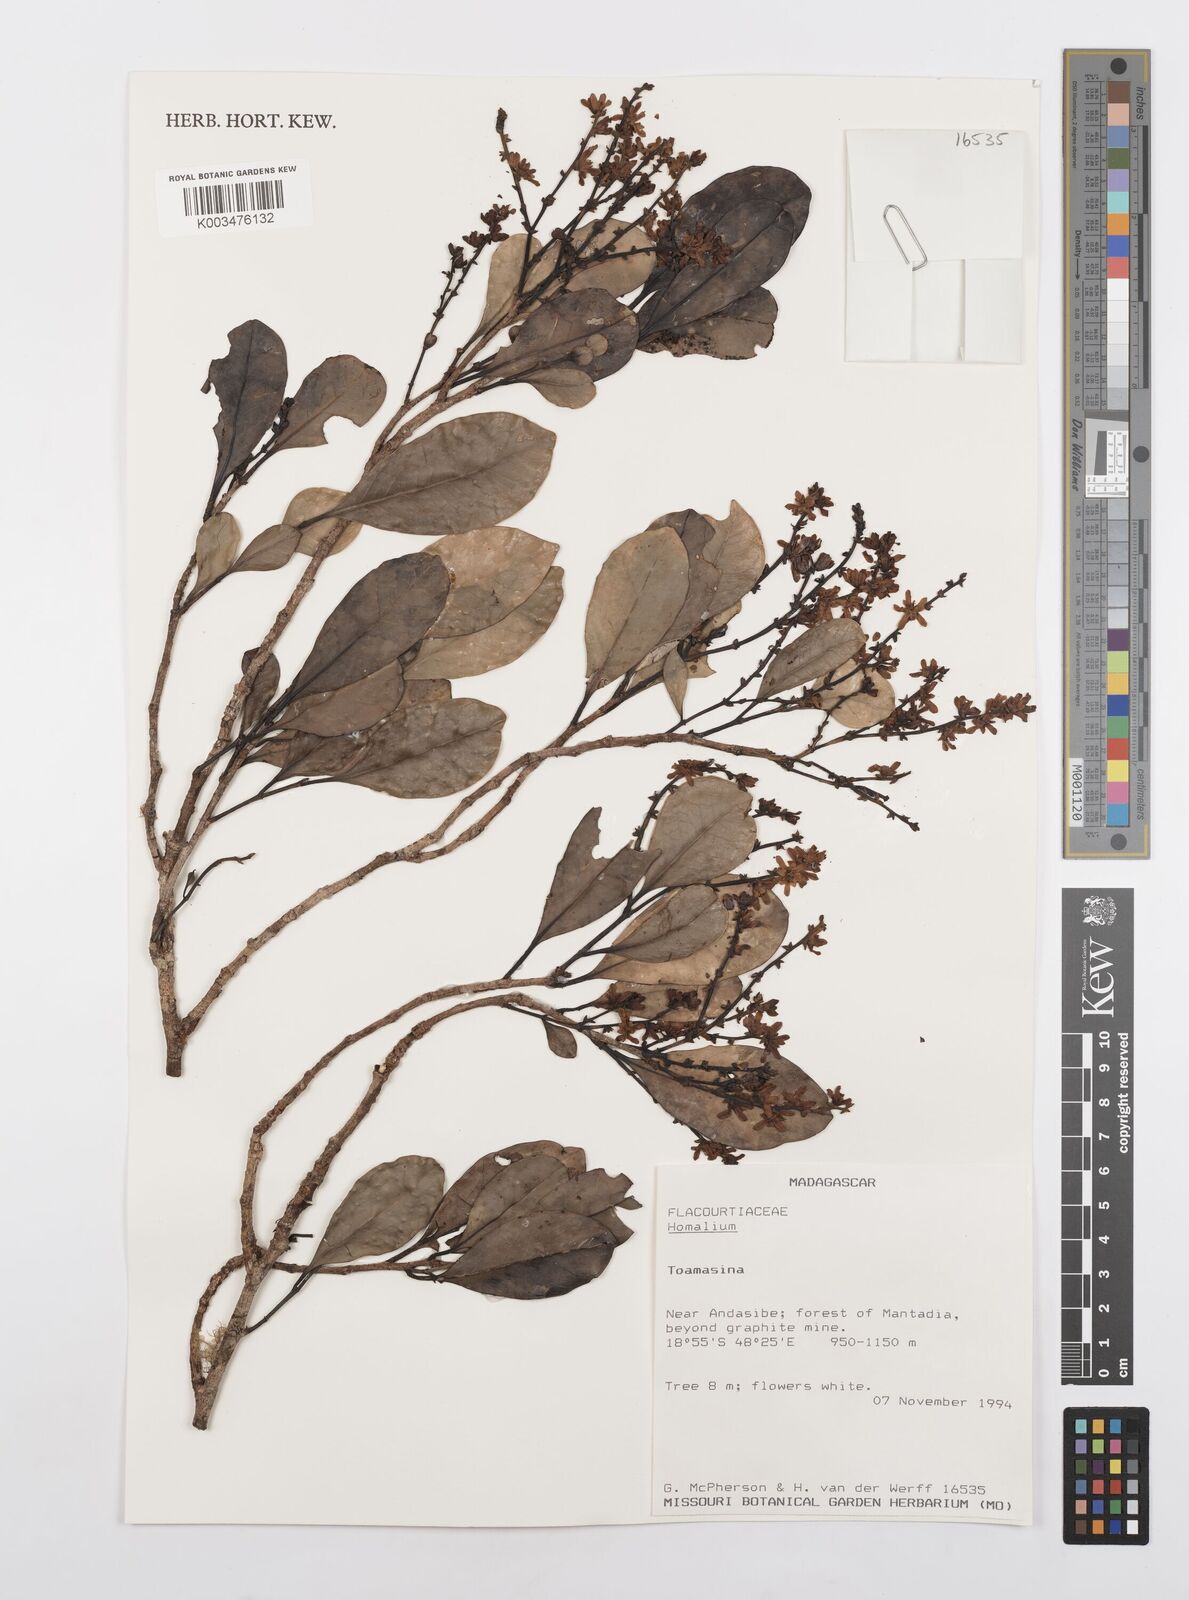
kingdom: Plantae
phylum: Tracheophyta
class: Magnoliopsida
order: Malpighiales
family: Salicaceae
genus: Homalium
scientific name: Homalium
